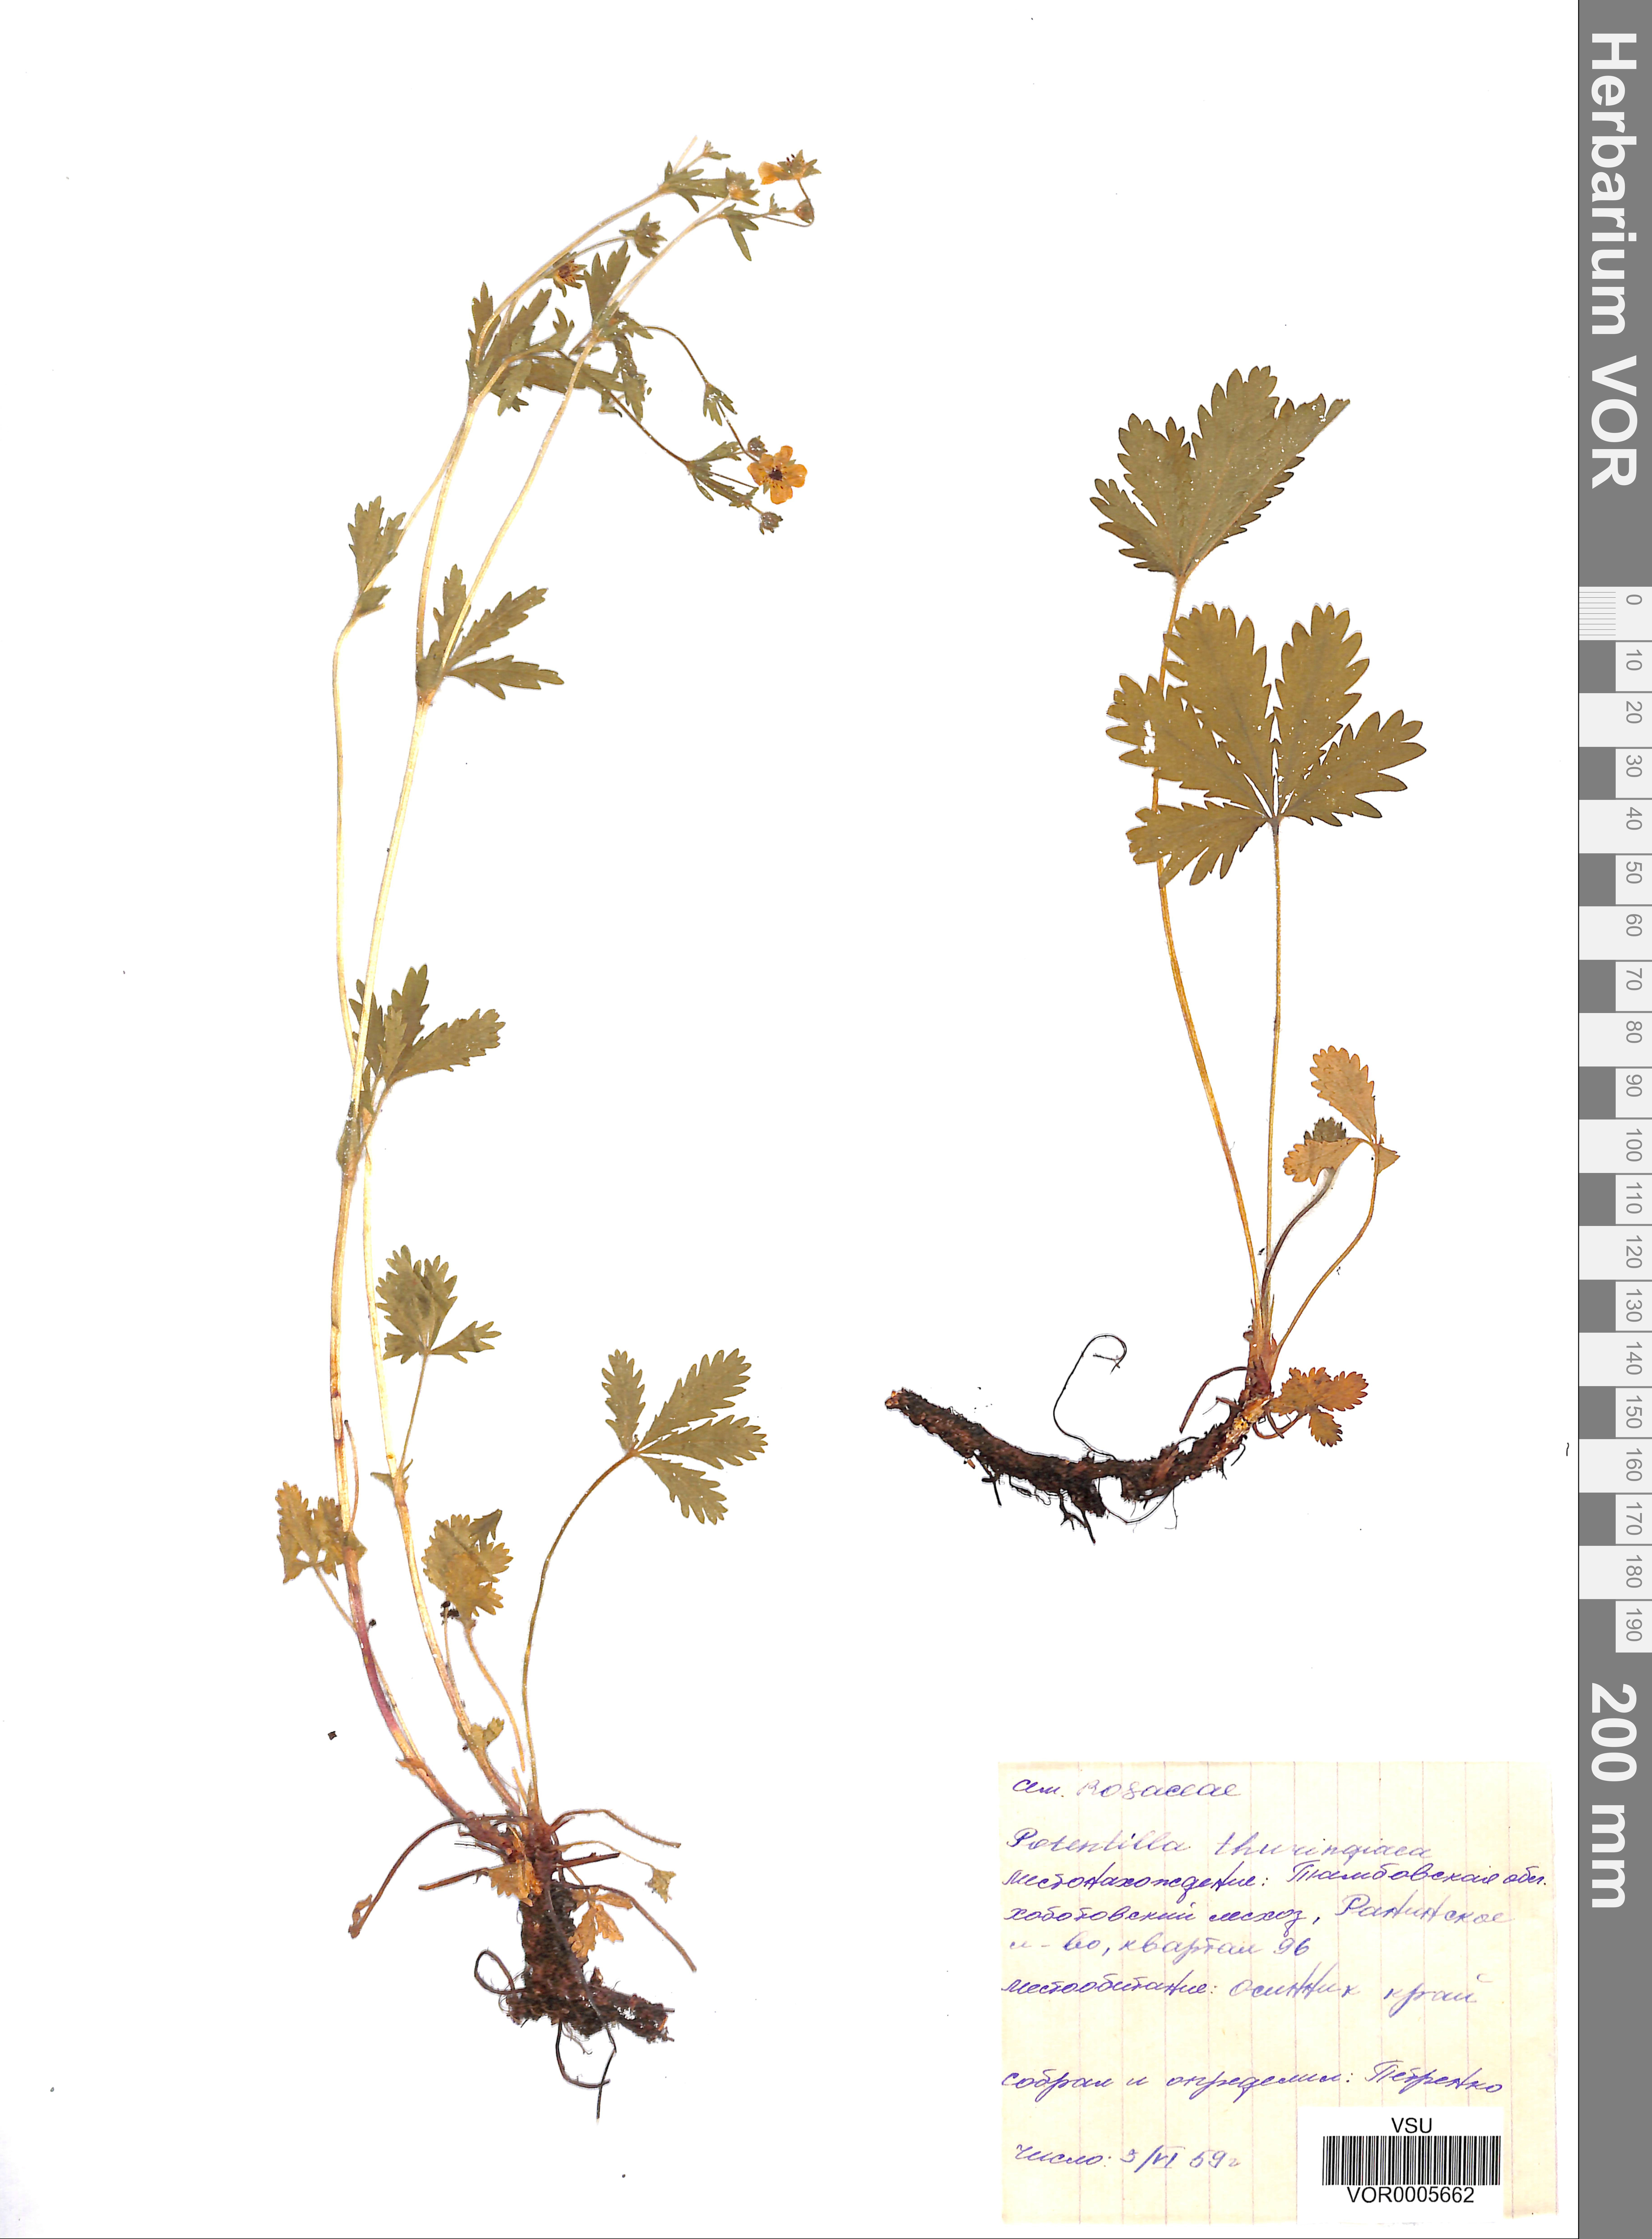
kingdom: Plantae
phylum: Tracheophyta
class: Magnoliopsida
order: Rosales
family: Rosaceae
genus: Potentilla
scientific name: Potentilla thuringiaca
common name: European cinquefoil
